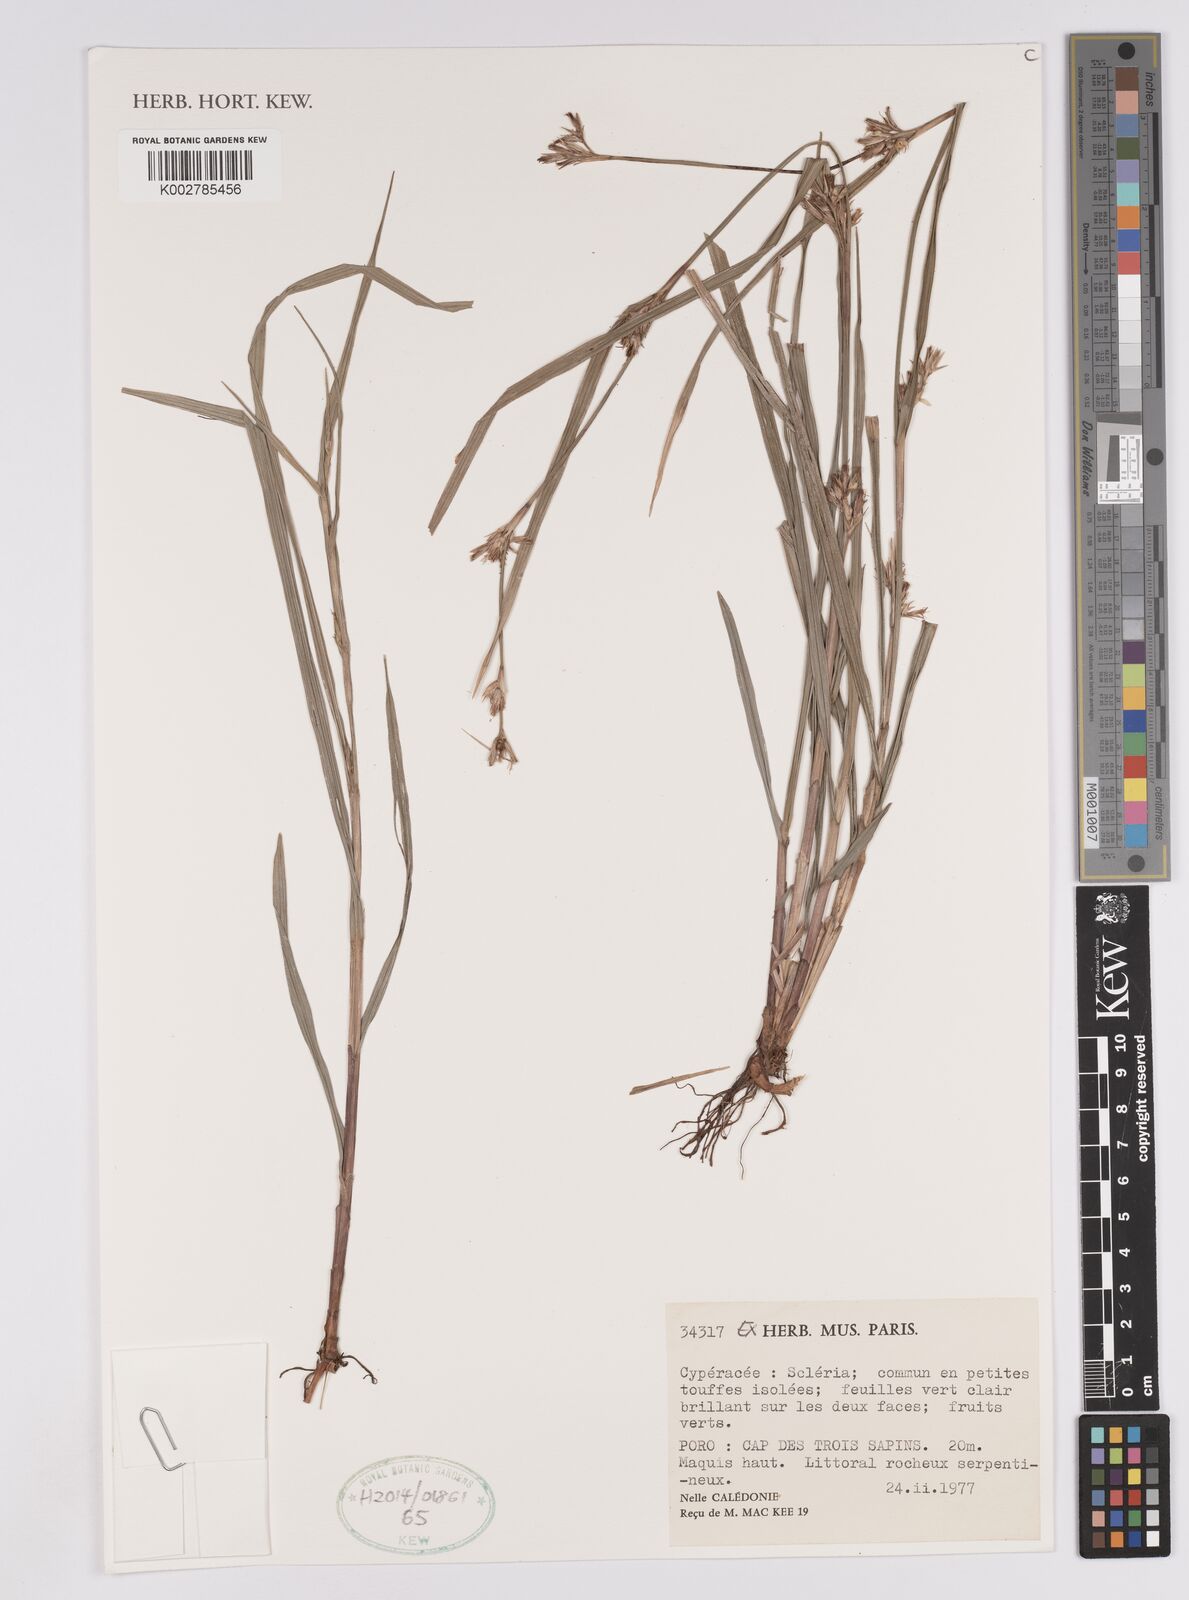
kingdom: Plantae
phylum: Tracheophyta
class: Liliopsida
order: Poales
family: Cyperaceae
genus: Scleria
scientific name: Scleria
